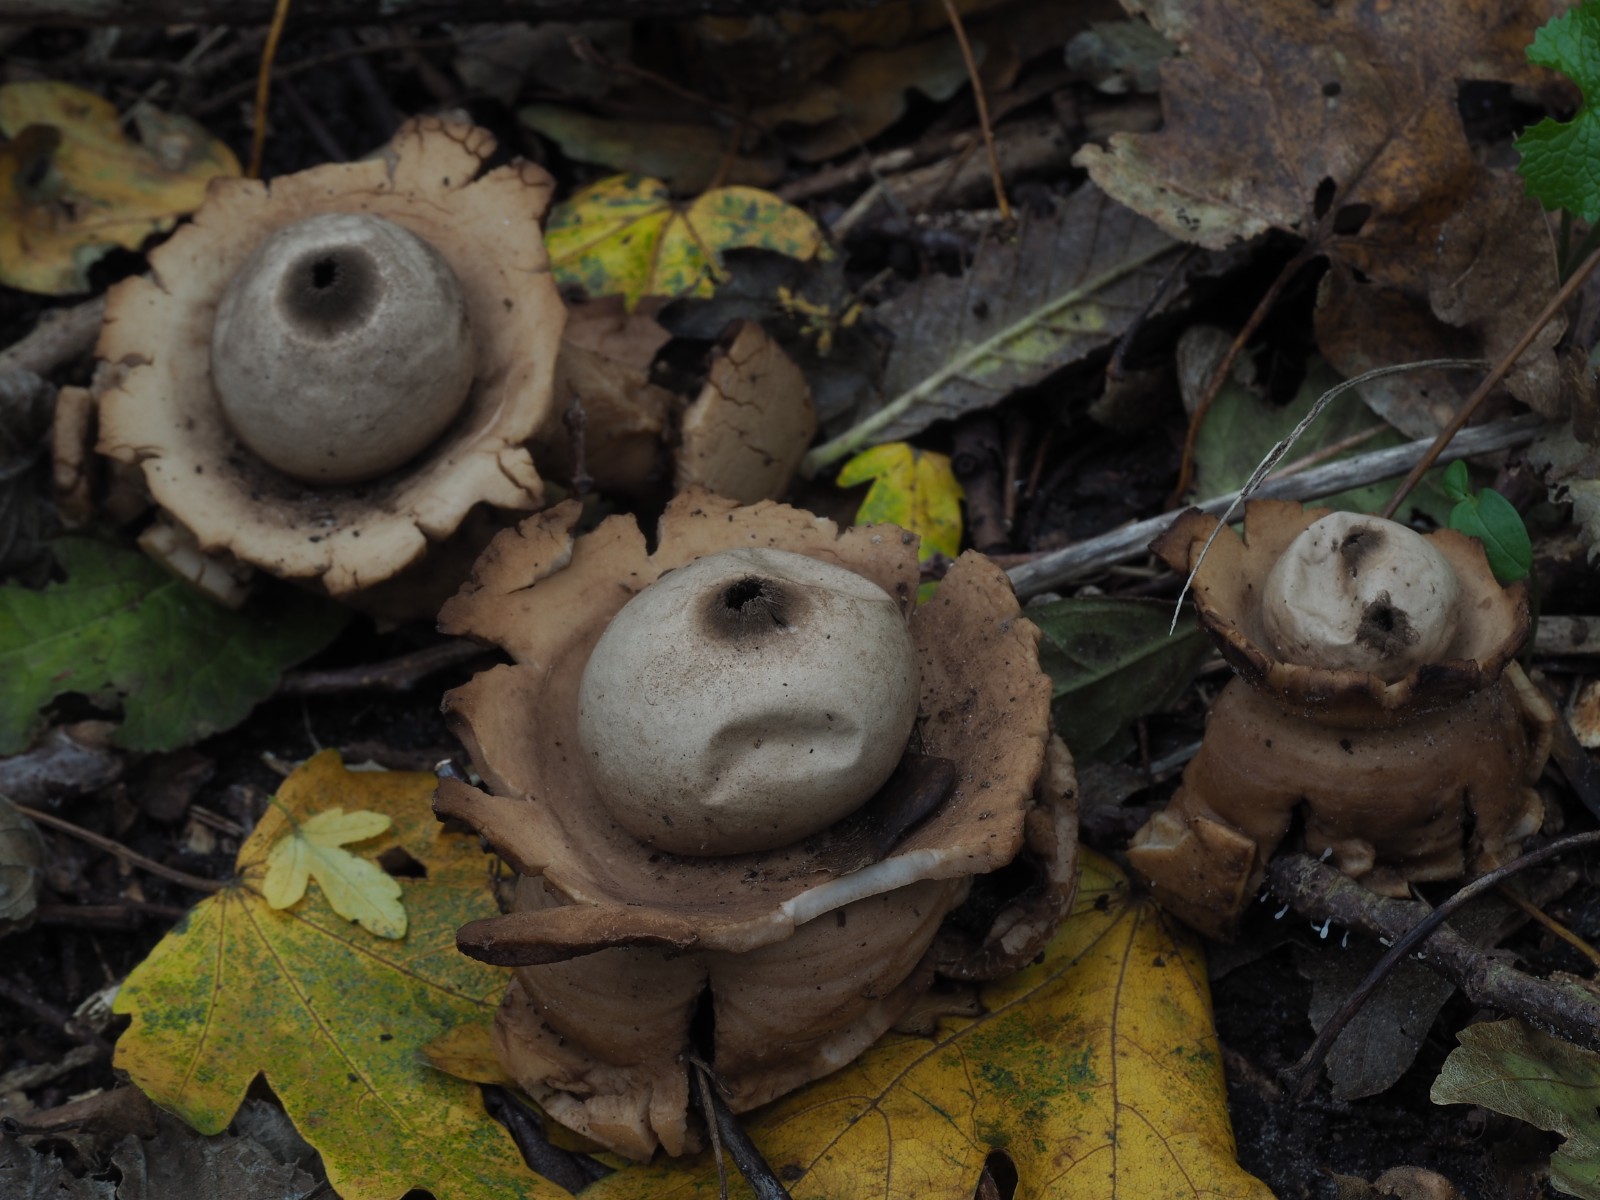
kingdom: Fungi
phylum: Basidiomycota
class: Agaricomycetes
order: Geastrales
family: Geastraceae
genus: Geastrum
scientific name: Geastrum michelianum
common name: kødet stjernebold
